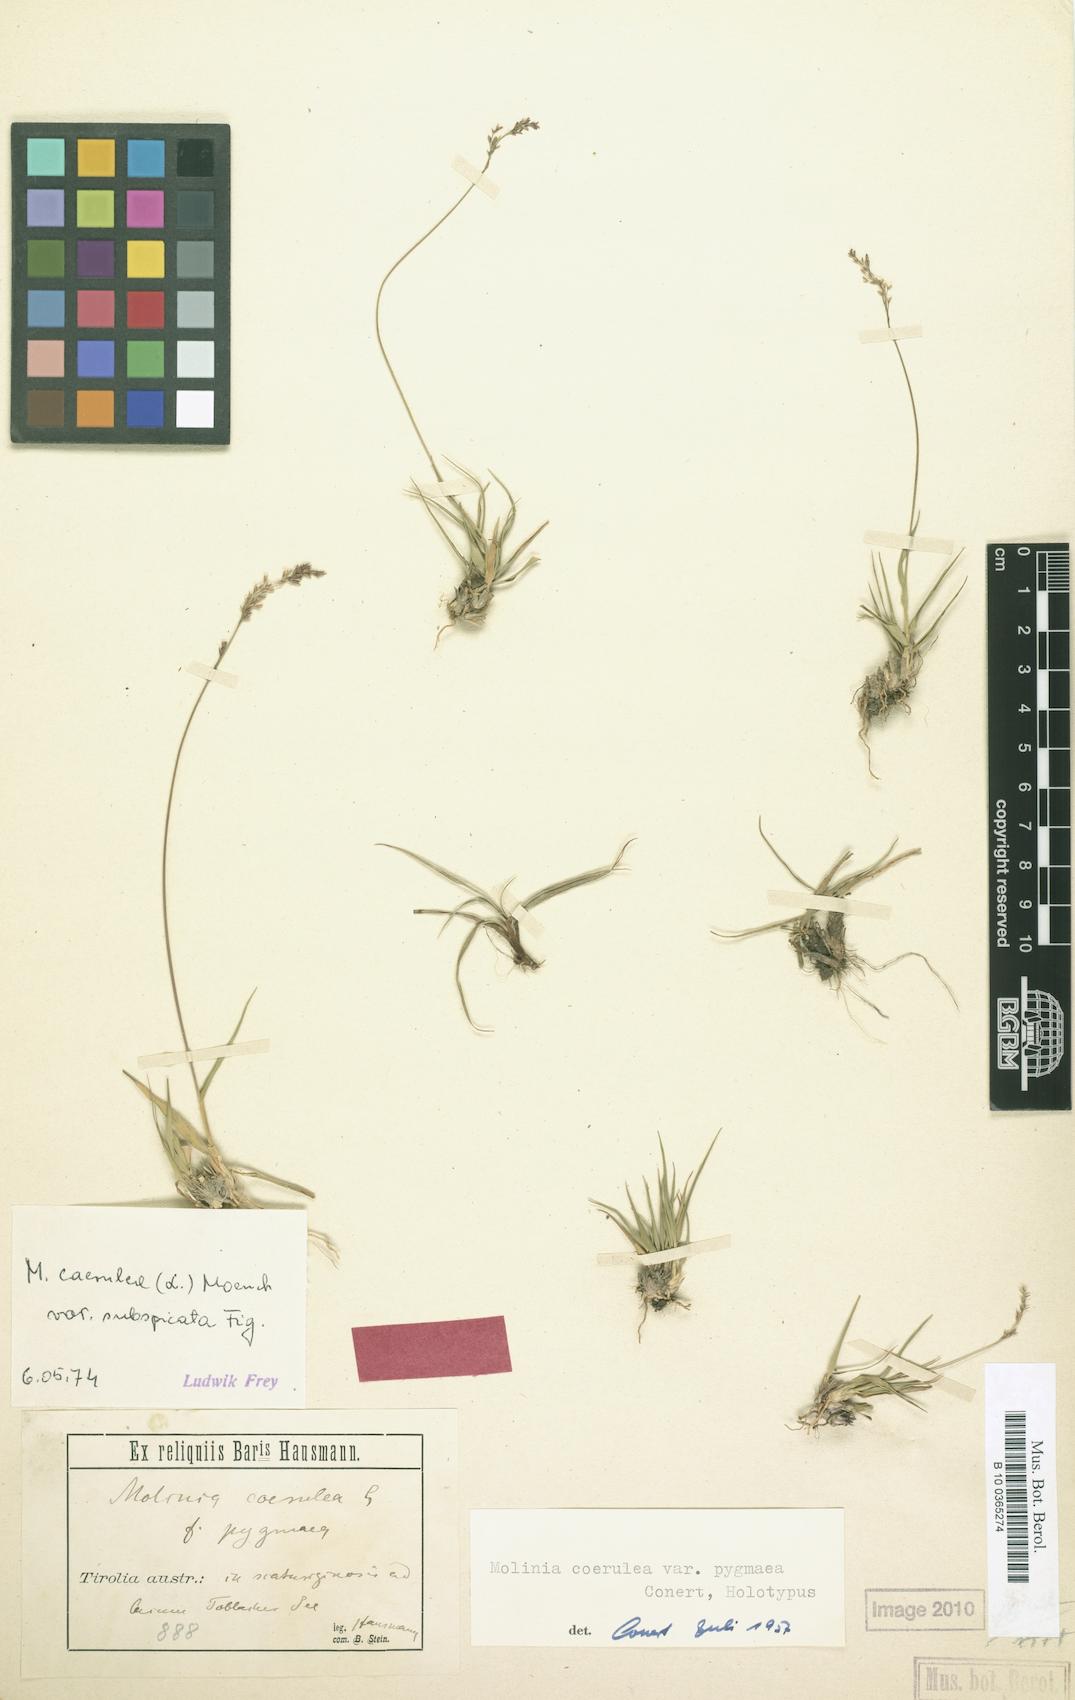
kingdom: Plantae
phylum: Tracheophyta
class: Liliopsida
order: Poales
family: Poaceae
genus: Molinia
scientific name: Molinia caerulea
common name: Purple moor-grass
